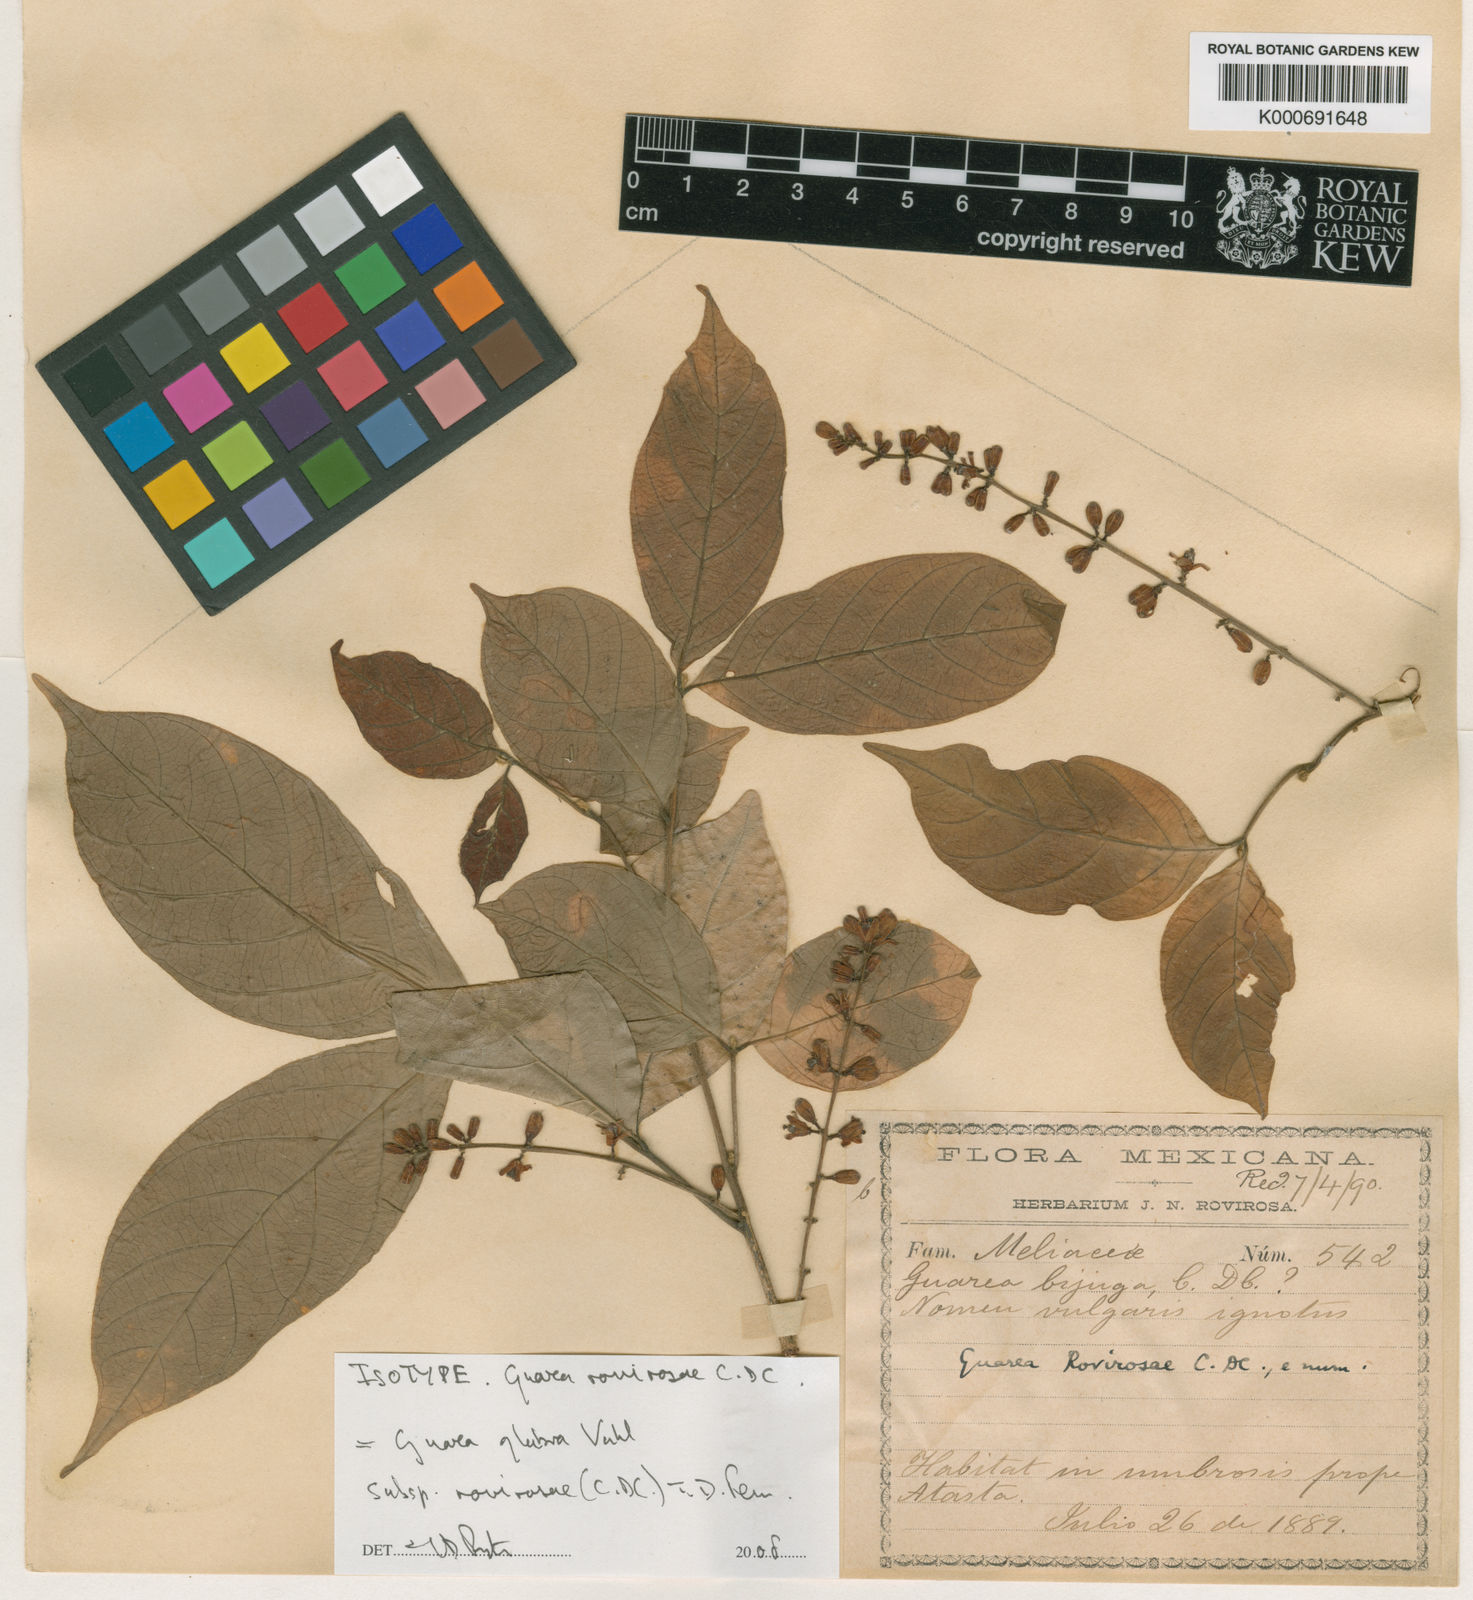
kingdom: Plantae
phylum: Tracheophyta
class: Magnoliopsida
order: Sapindales
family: Meliaceae
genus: Guarea
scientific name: Guarea glabra
